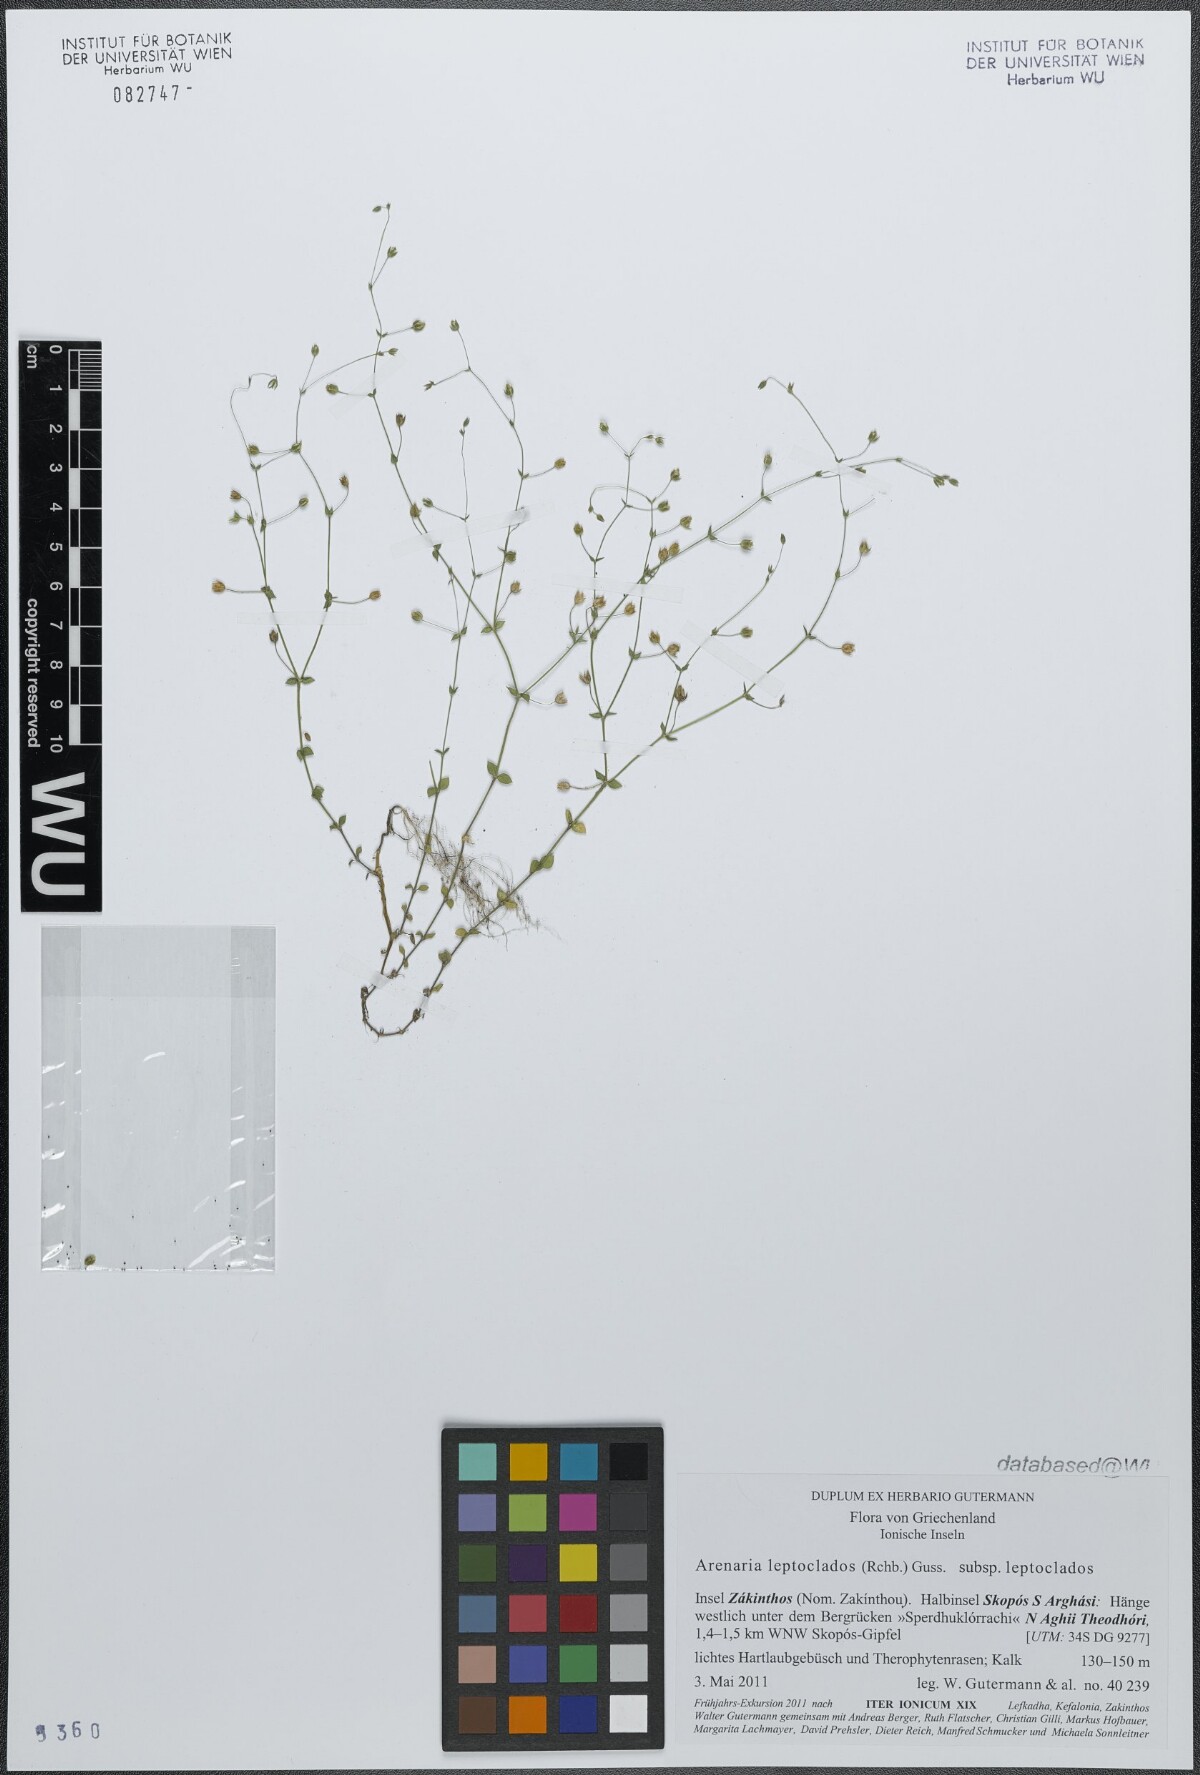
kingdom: Plantae
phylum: Tracheophyta
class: Magnoliopsida
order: Caryophyllales
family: Caryophyllaceae
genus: Arenaria
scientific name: Arenaria leptoclados
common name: Thyme-leaved sandwort
